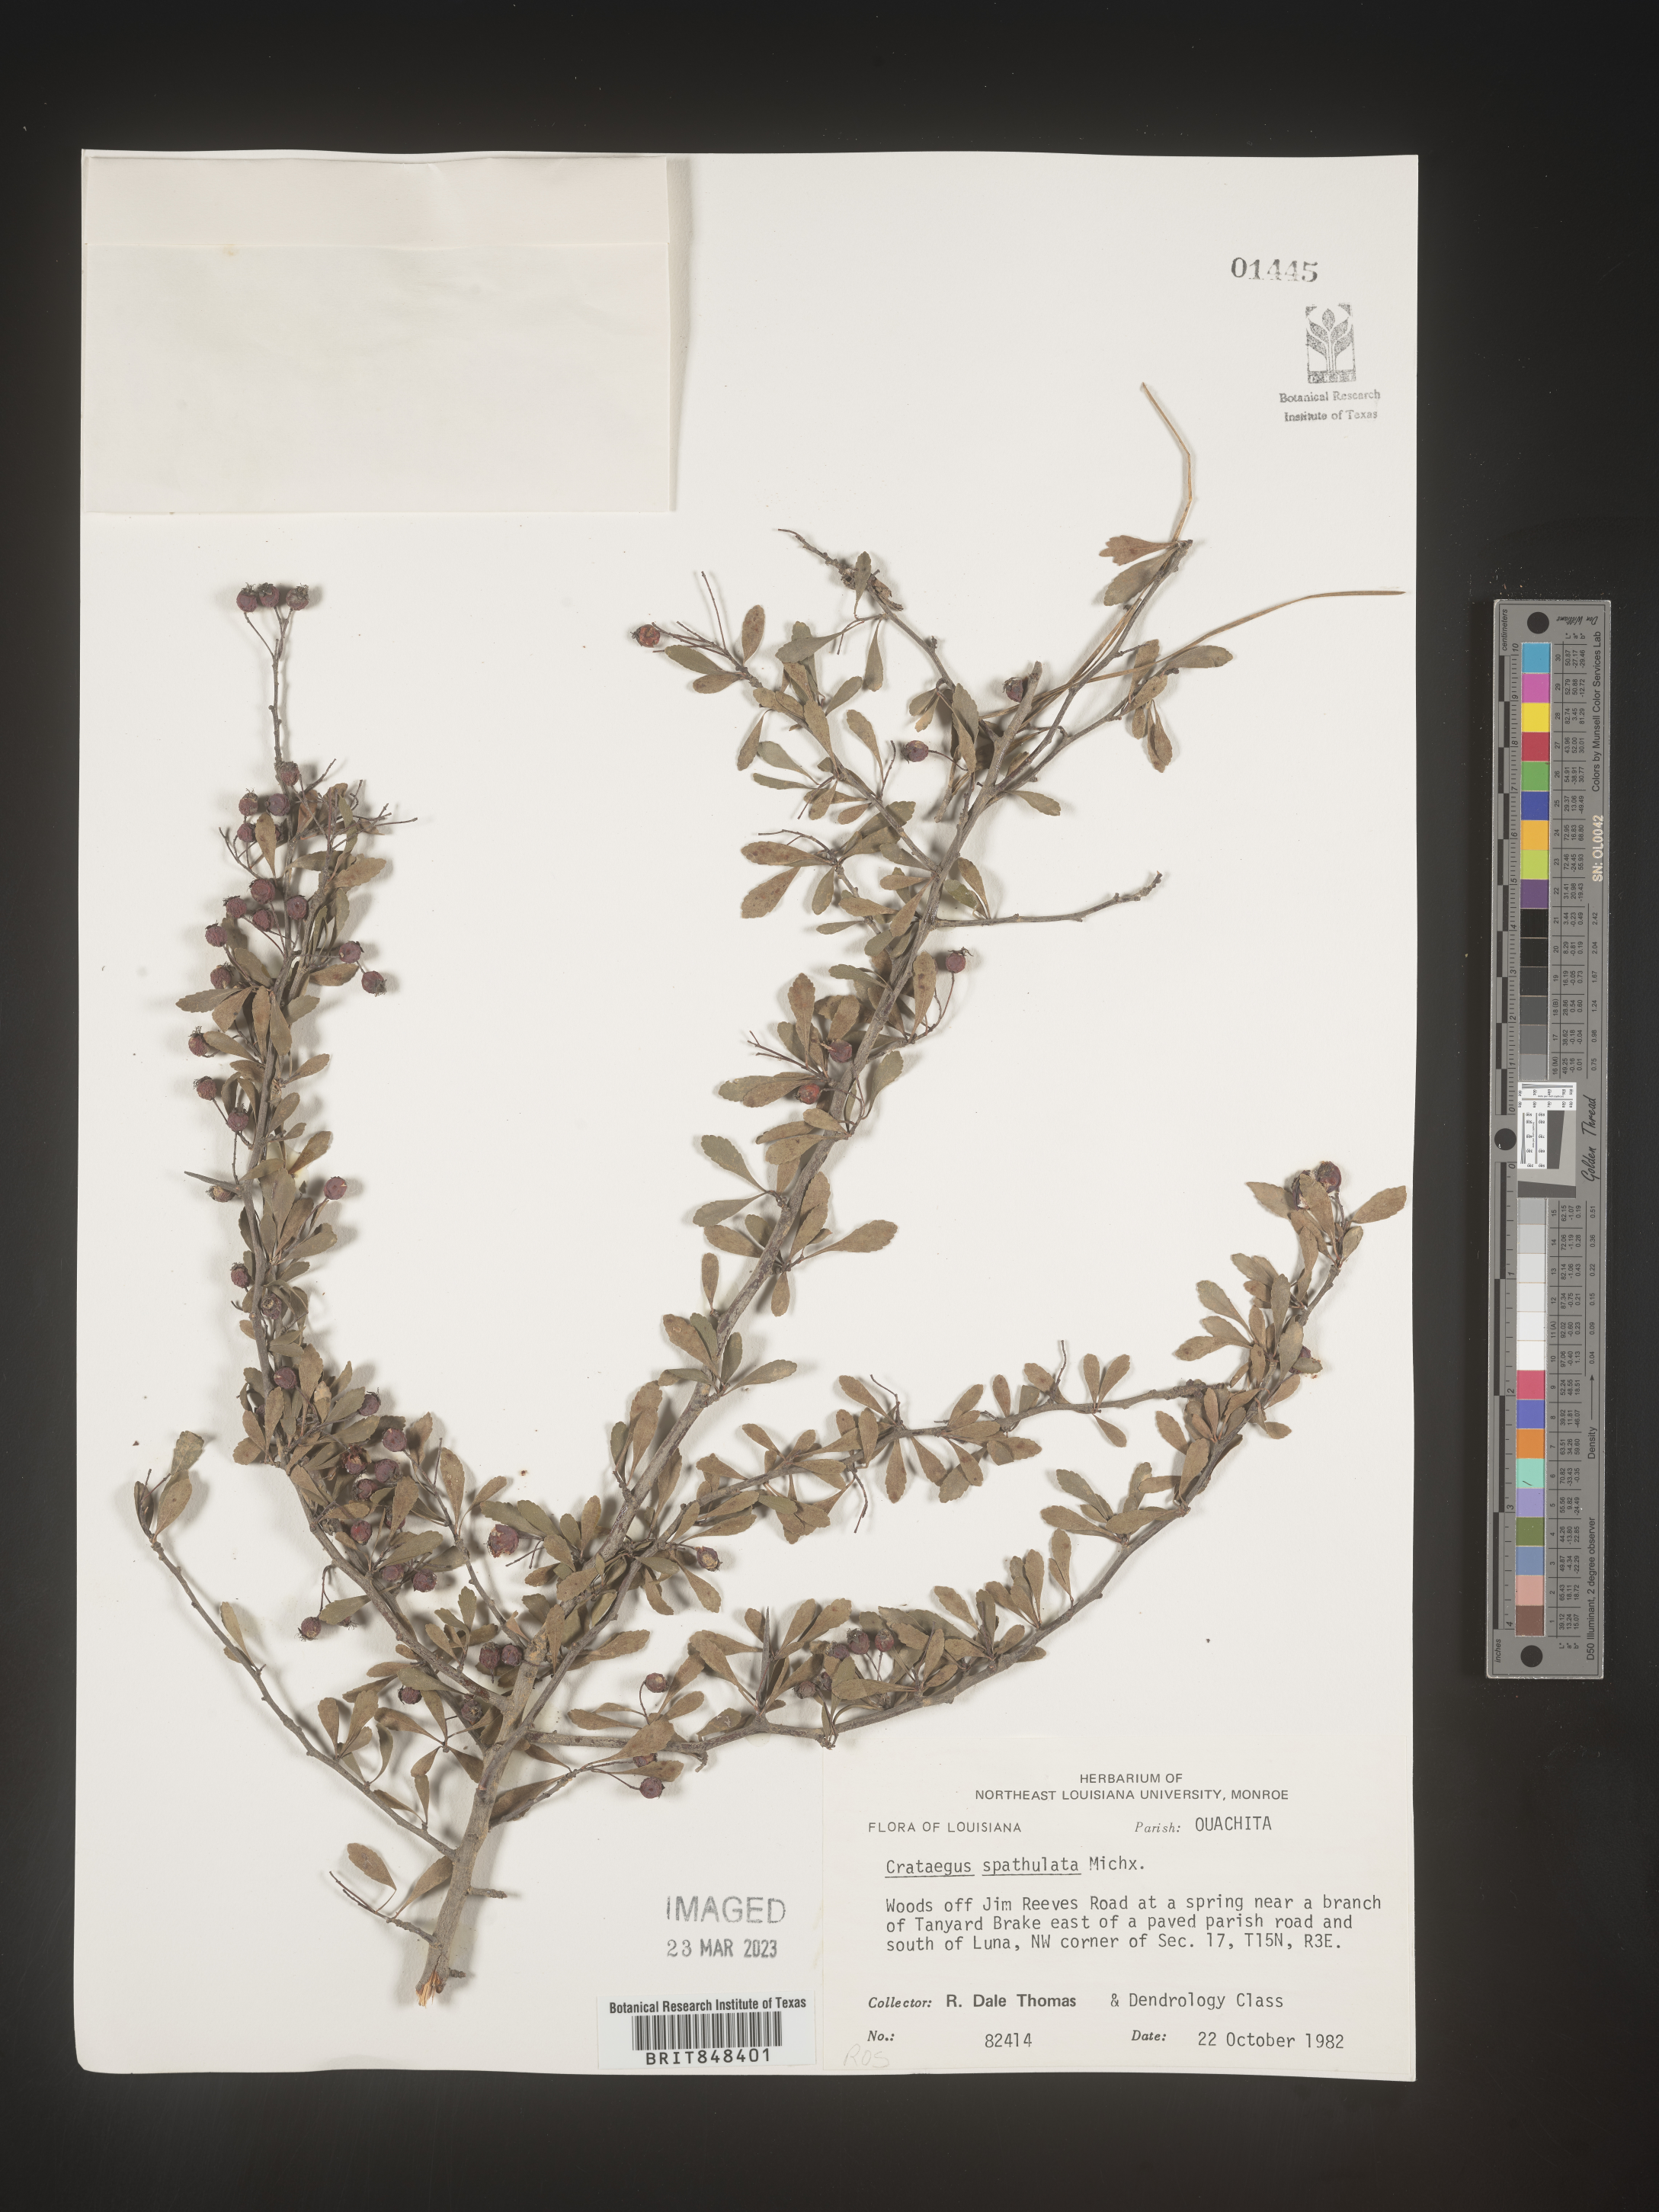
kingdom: Plantae
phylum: Tracheophyta
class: Magnoliopsida
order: Rosales
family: Rosaceae
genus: Crataegus
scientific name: Crataegus spathulata
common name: Littlehip hawthorn
